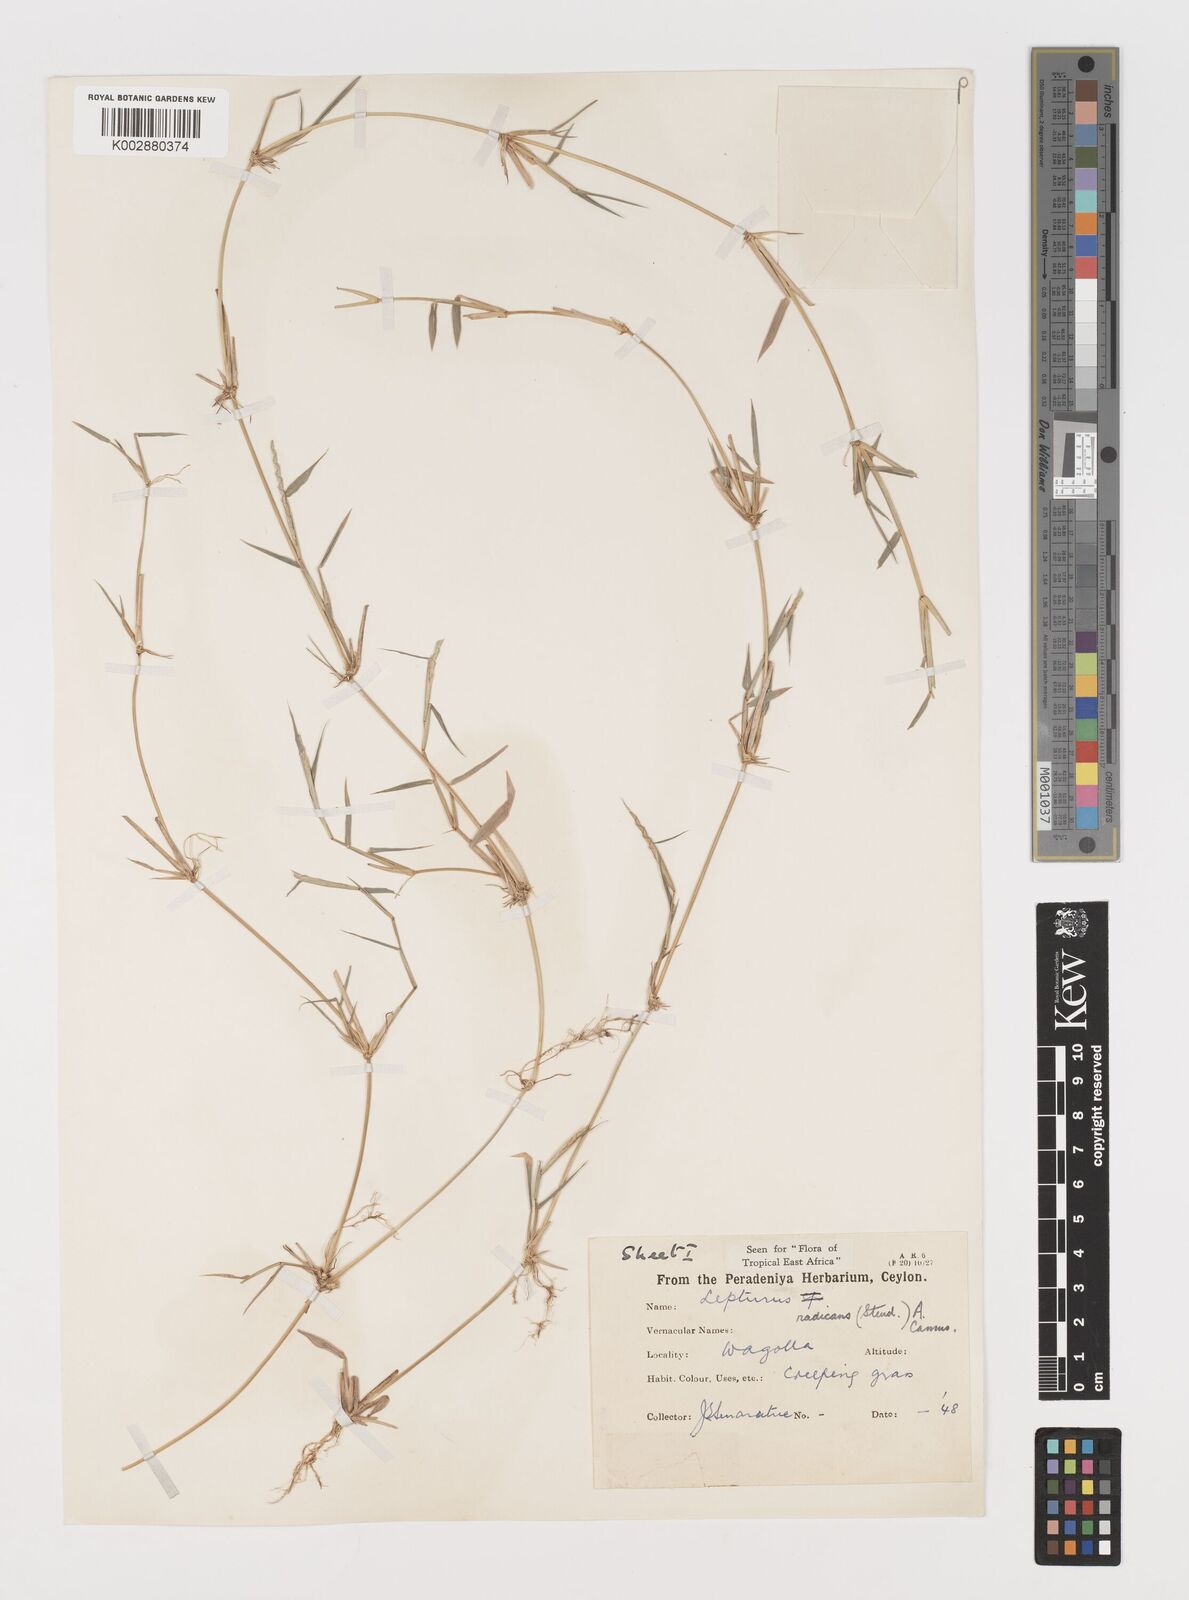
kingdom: Plantae
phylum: Tracheophyta
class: Liliopsida
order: Poales
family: Poaceae
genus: Lepturus
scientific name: Lepturus radicans
